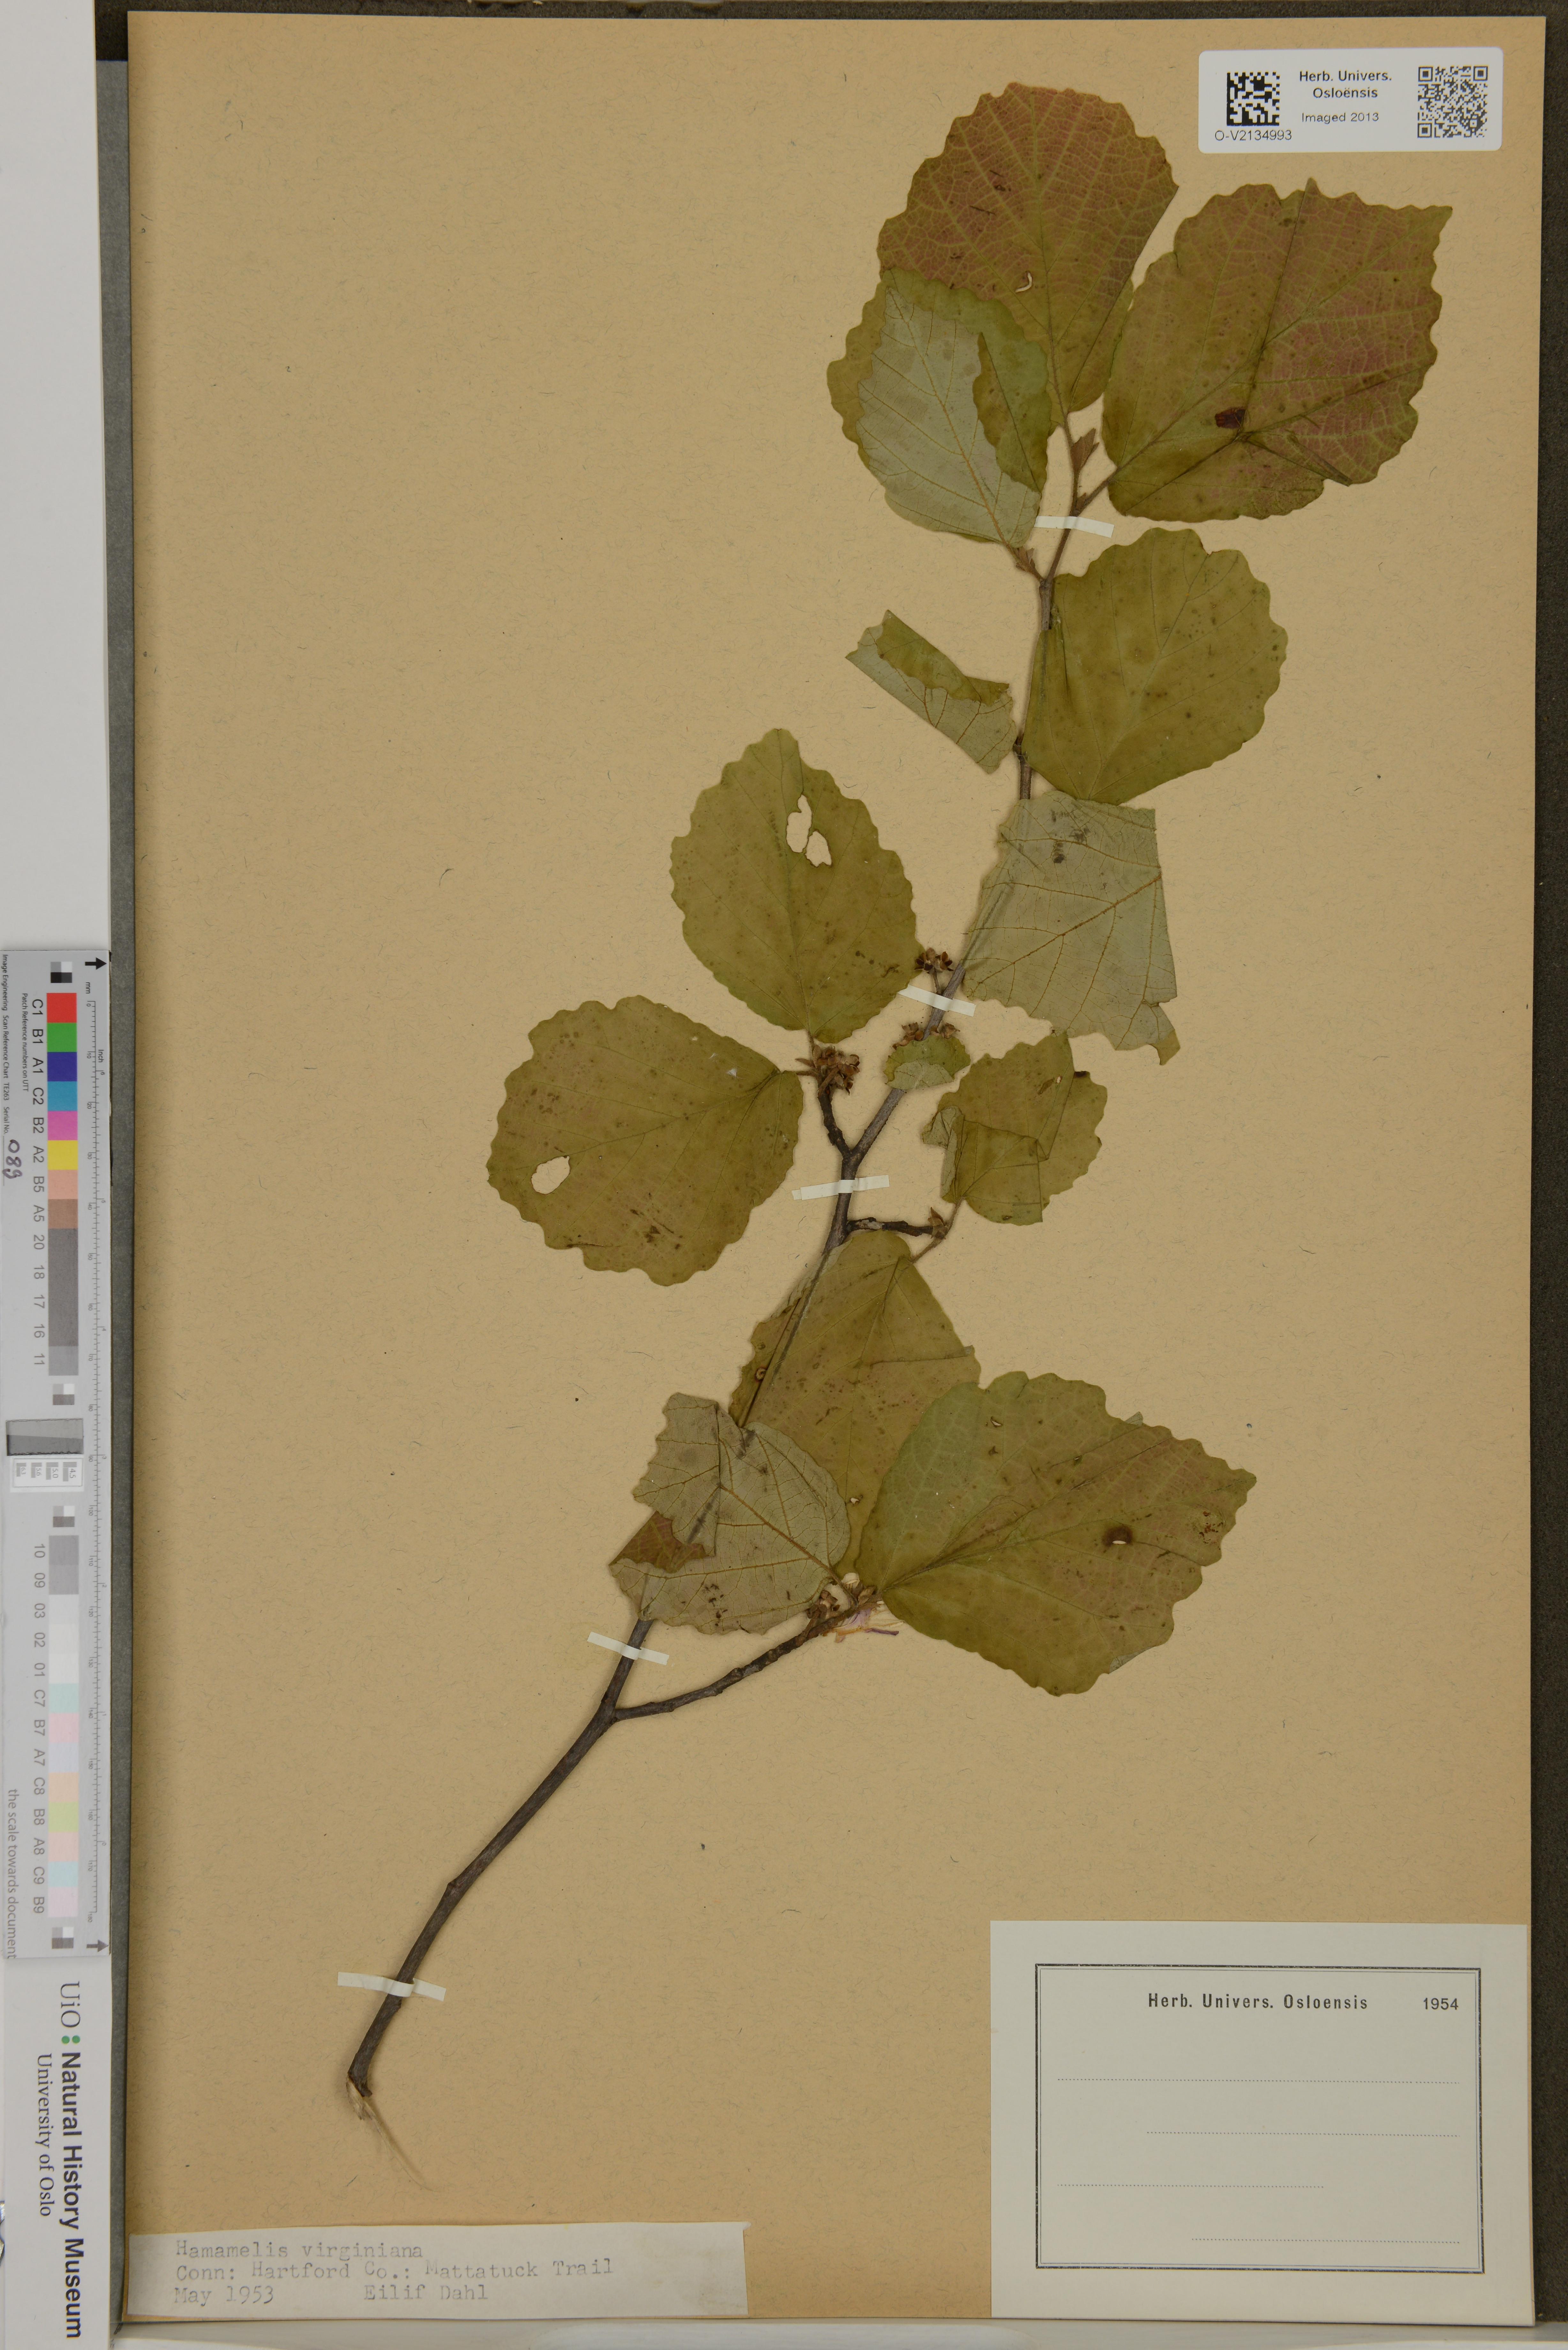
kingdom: Plantae
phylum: Tracheophyta
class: Magnoliopsida
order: Saxifragales
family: Hamamelidaceae
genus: Hamamelis
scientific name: Hamamelis virginiana
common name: Witch-hazel
